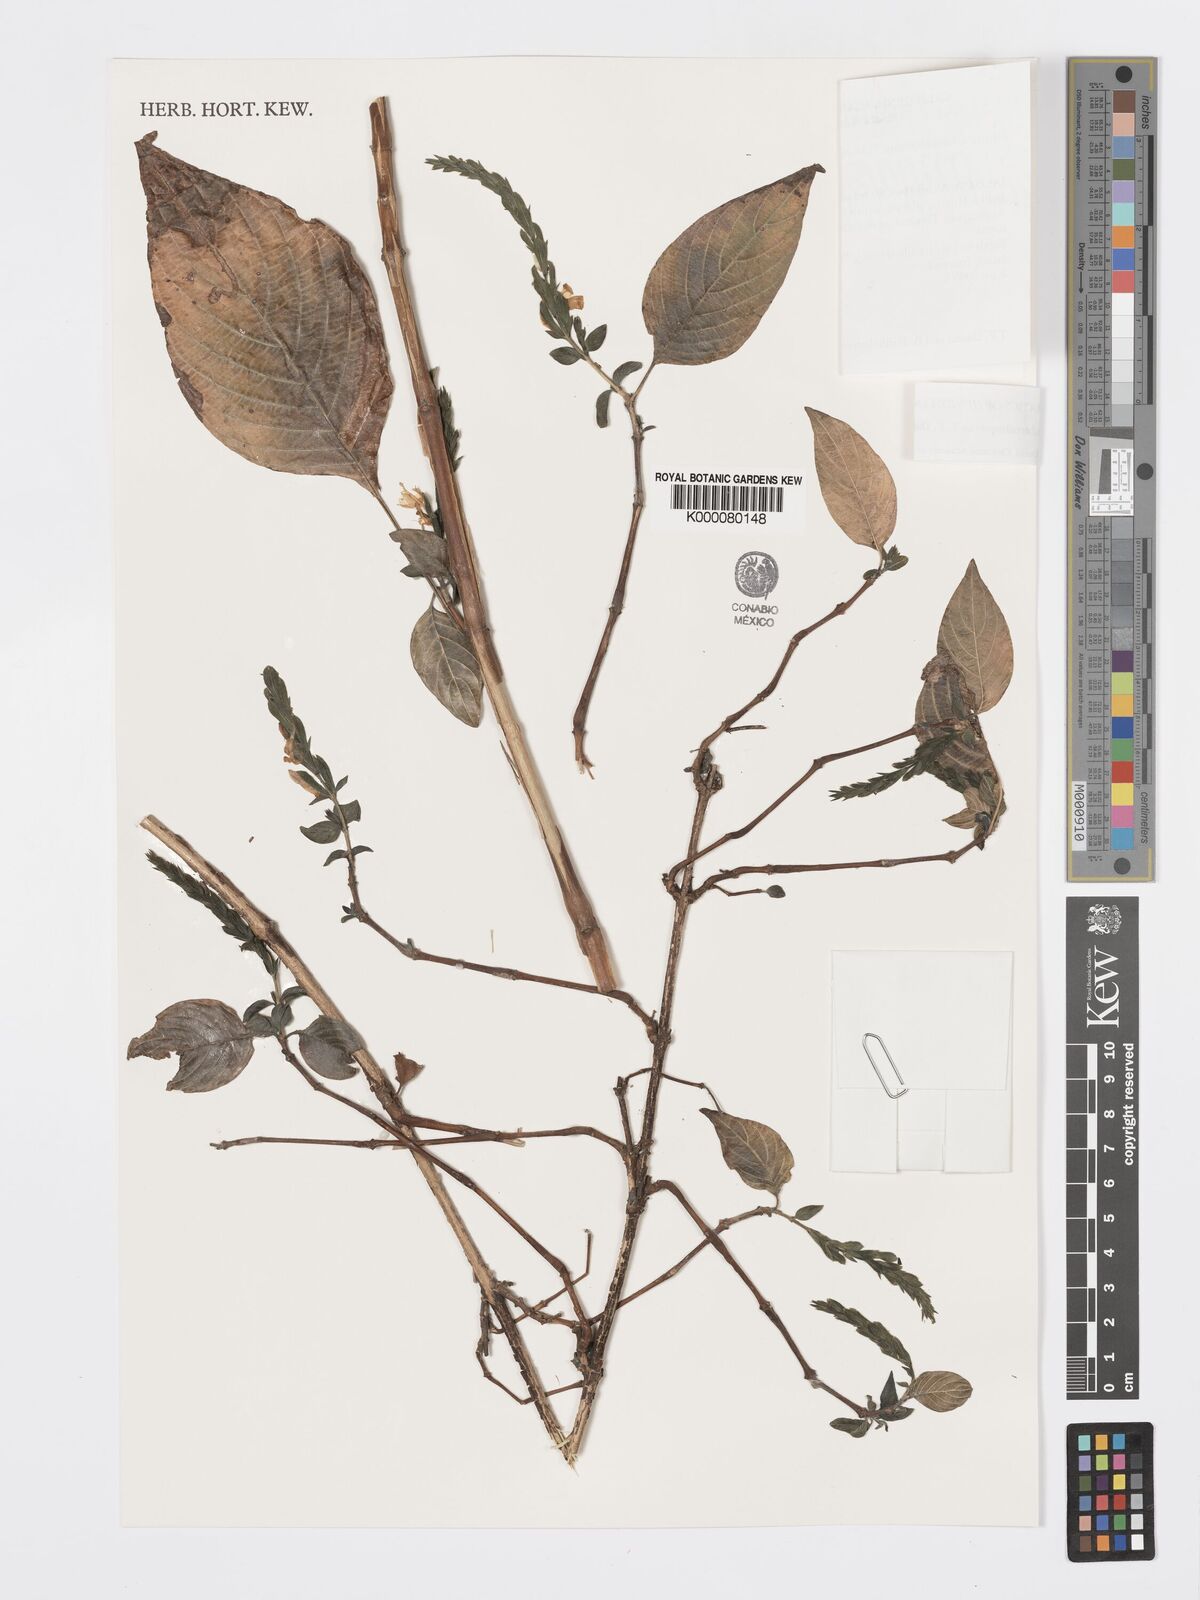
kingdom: Plantae
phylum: Tracheophyta
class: Magnoliopsida
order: Lamiales
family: Acanthaceae
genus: Henrya
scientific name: Henrya tuberculosperma
